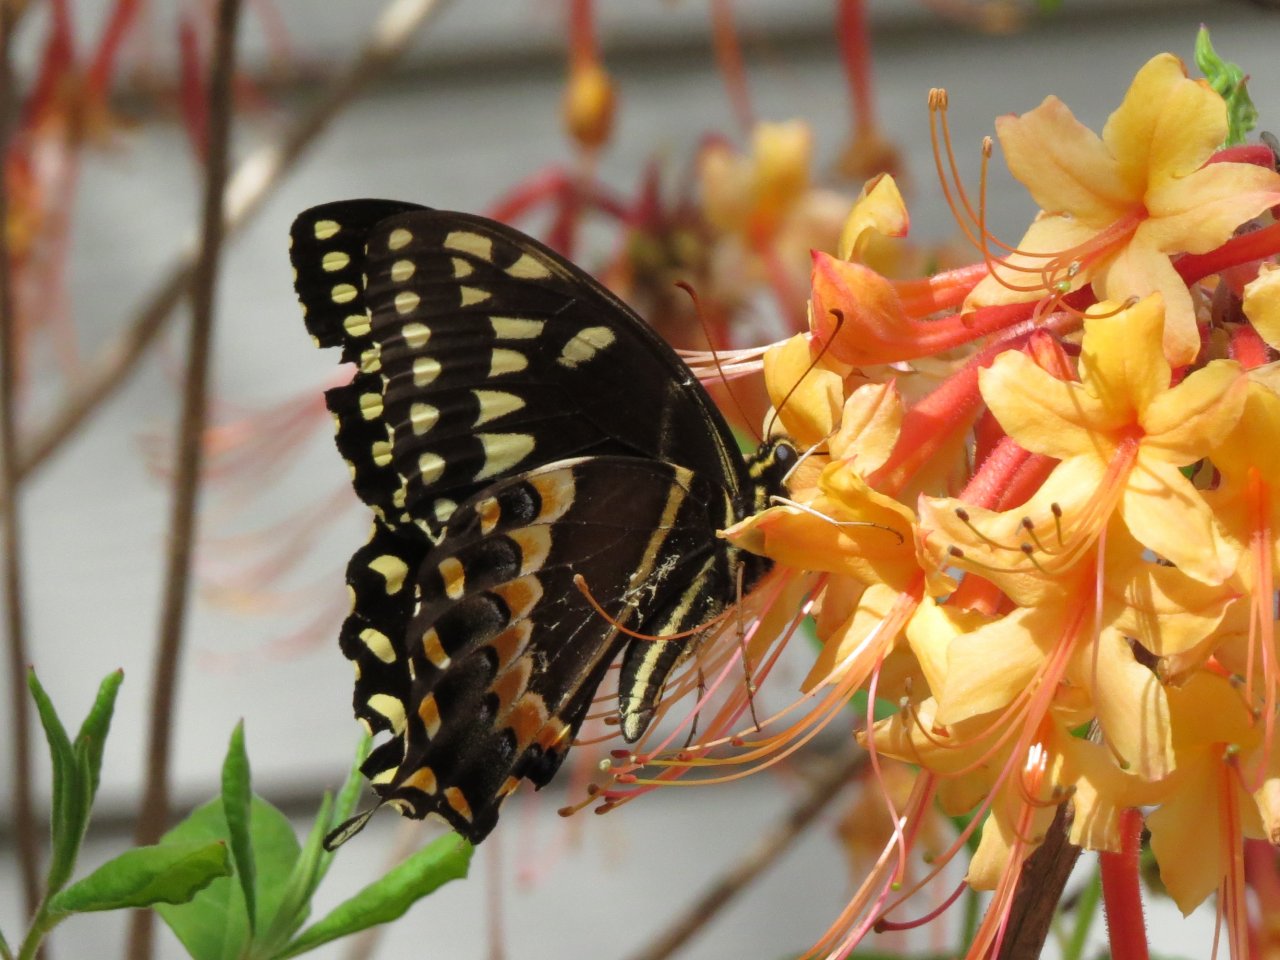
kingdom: Animalia
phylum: Arthropoda
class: Insecta
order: Lepidoptera
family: Papilionidae
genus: Pterourus
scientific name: Pterourus palamedes
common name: Palamedes Swallowtail
